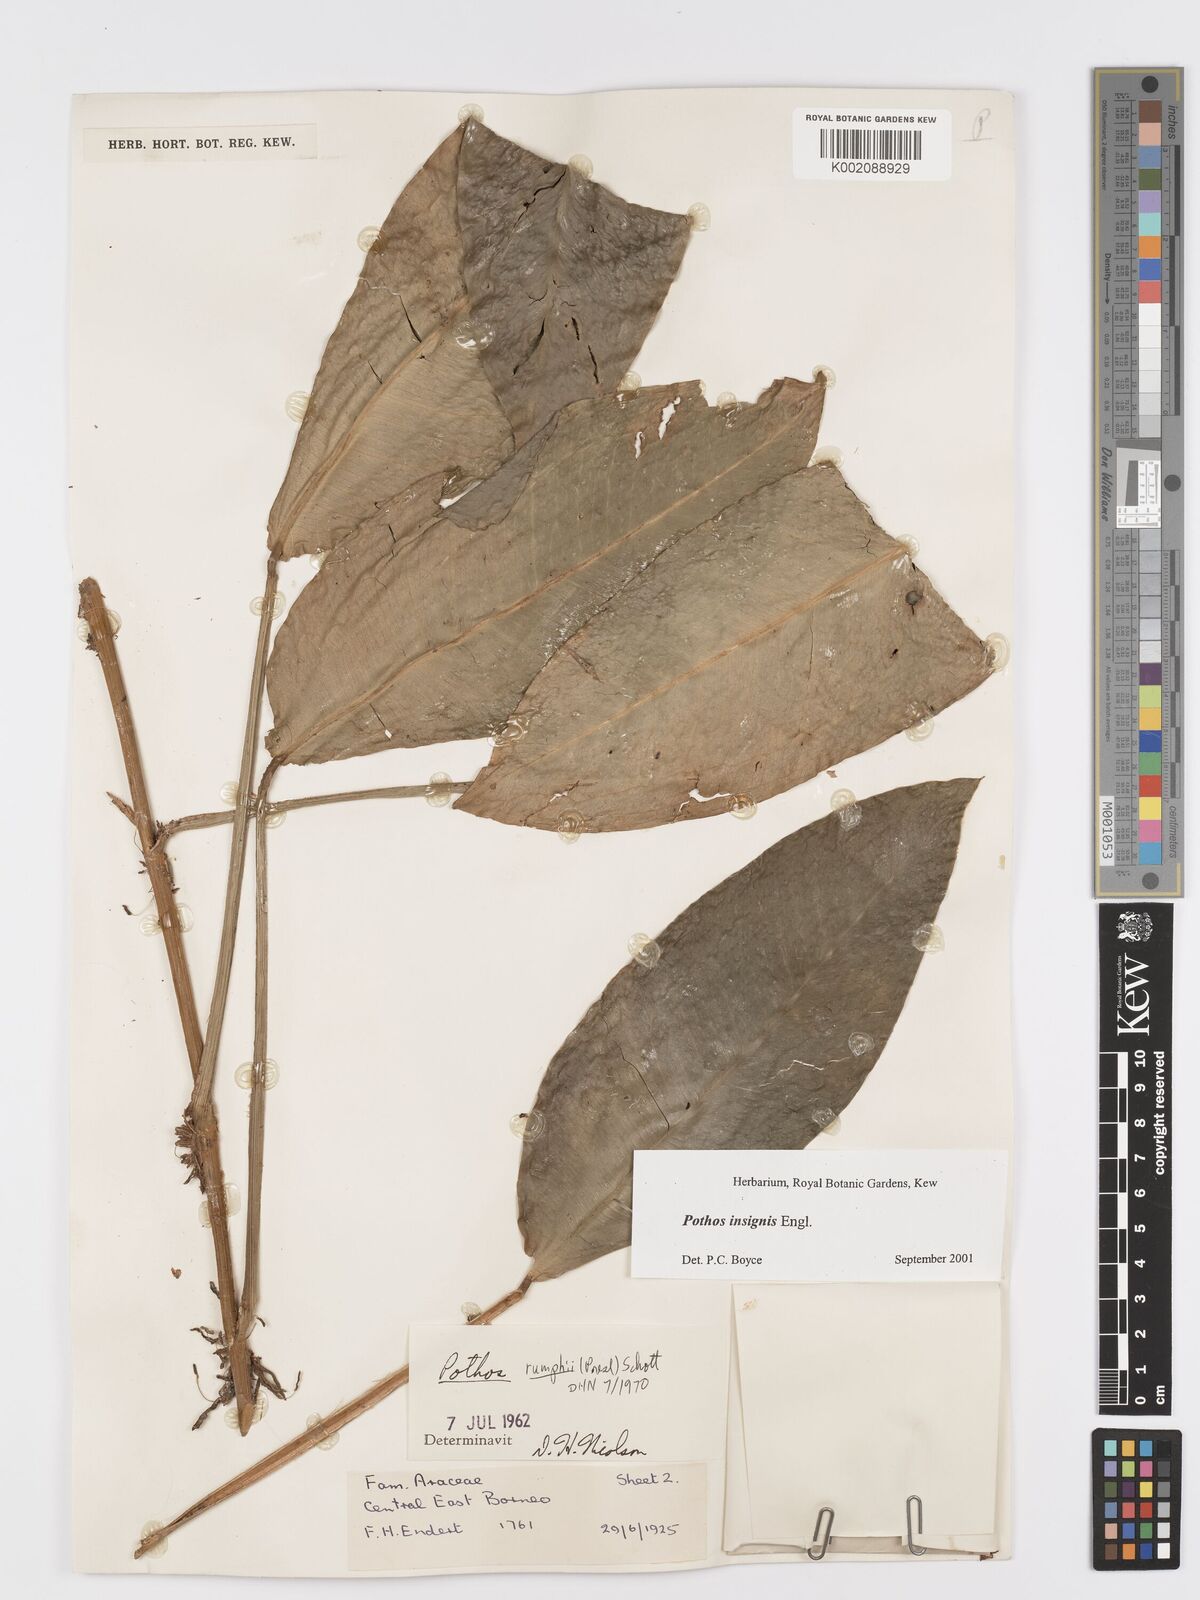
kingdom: Plantae
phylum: Tracheophyta
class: Liliopsida
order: Alismatales
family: Araceae
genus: Pothos
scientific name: Pothos insignis
